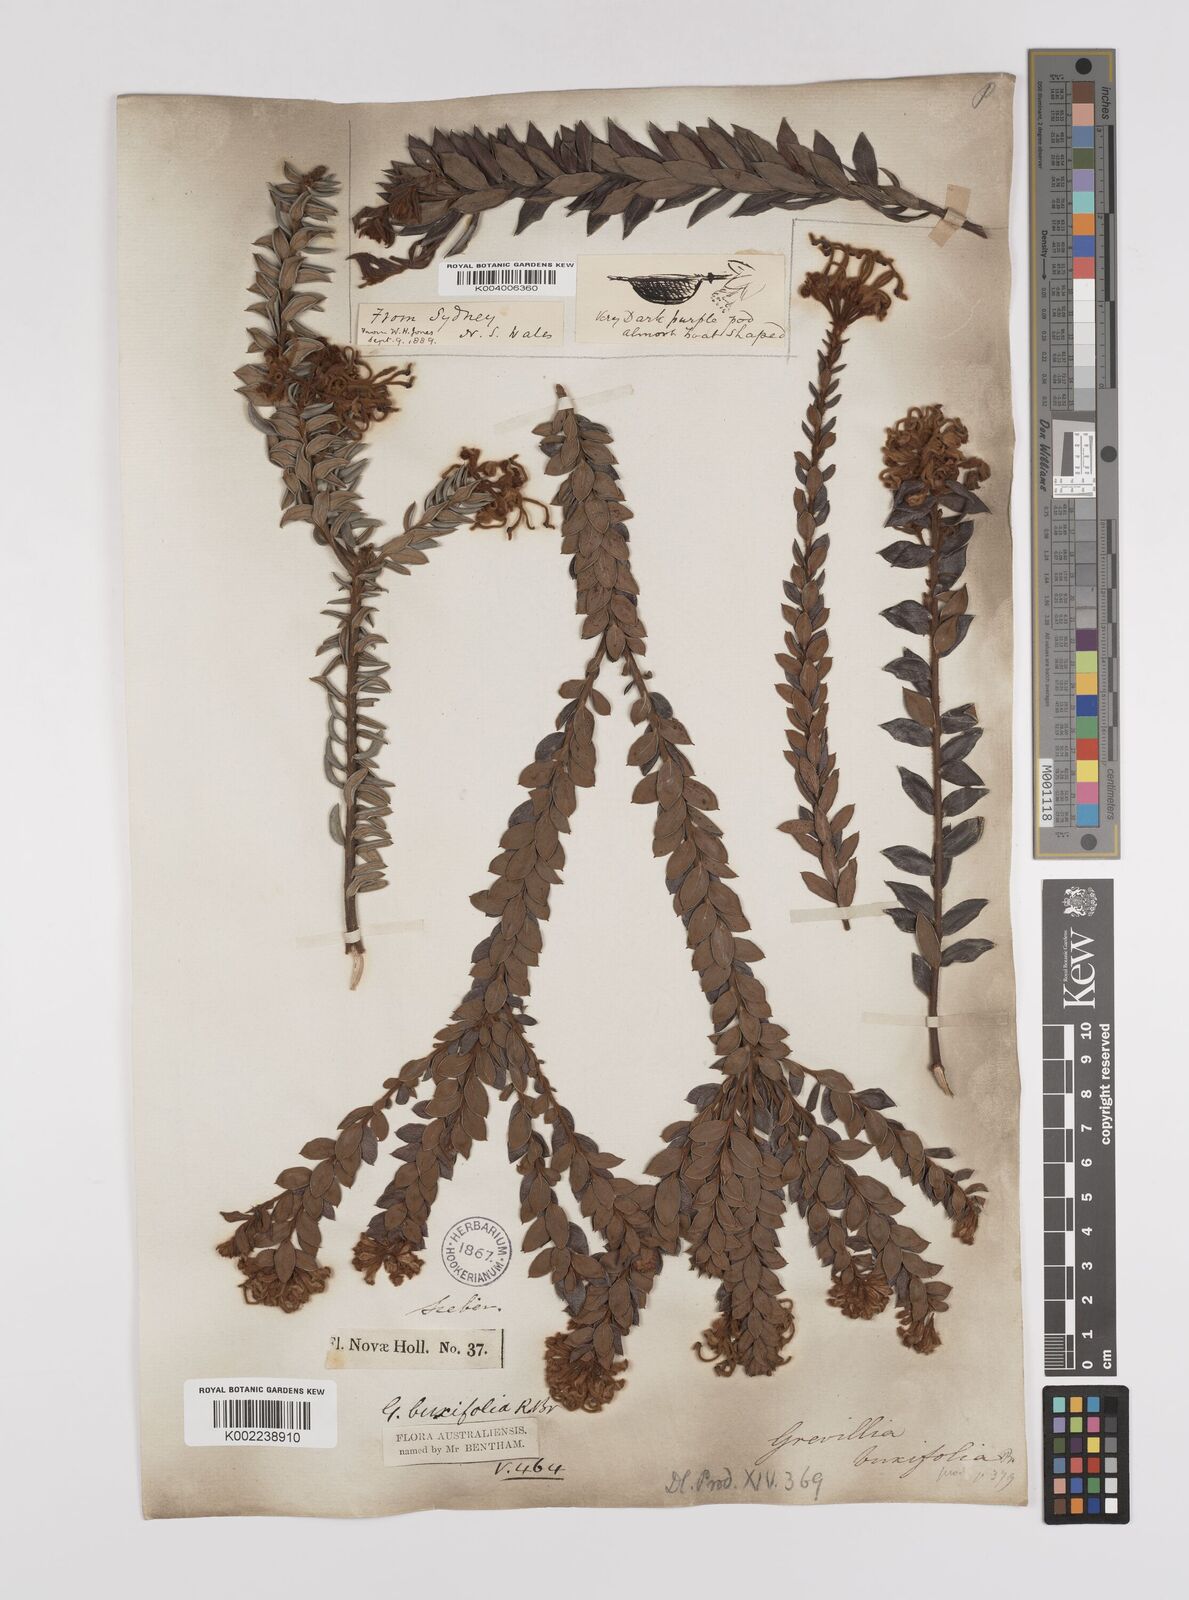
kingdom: Plantae
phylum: Tracheophyta
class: Magnoliopsida
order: Proteales
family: Proteaceae
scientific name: Proteaceae
